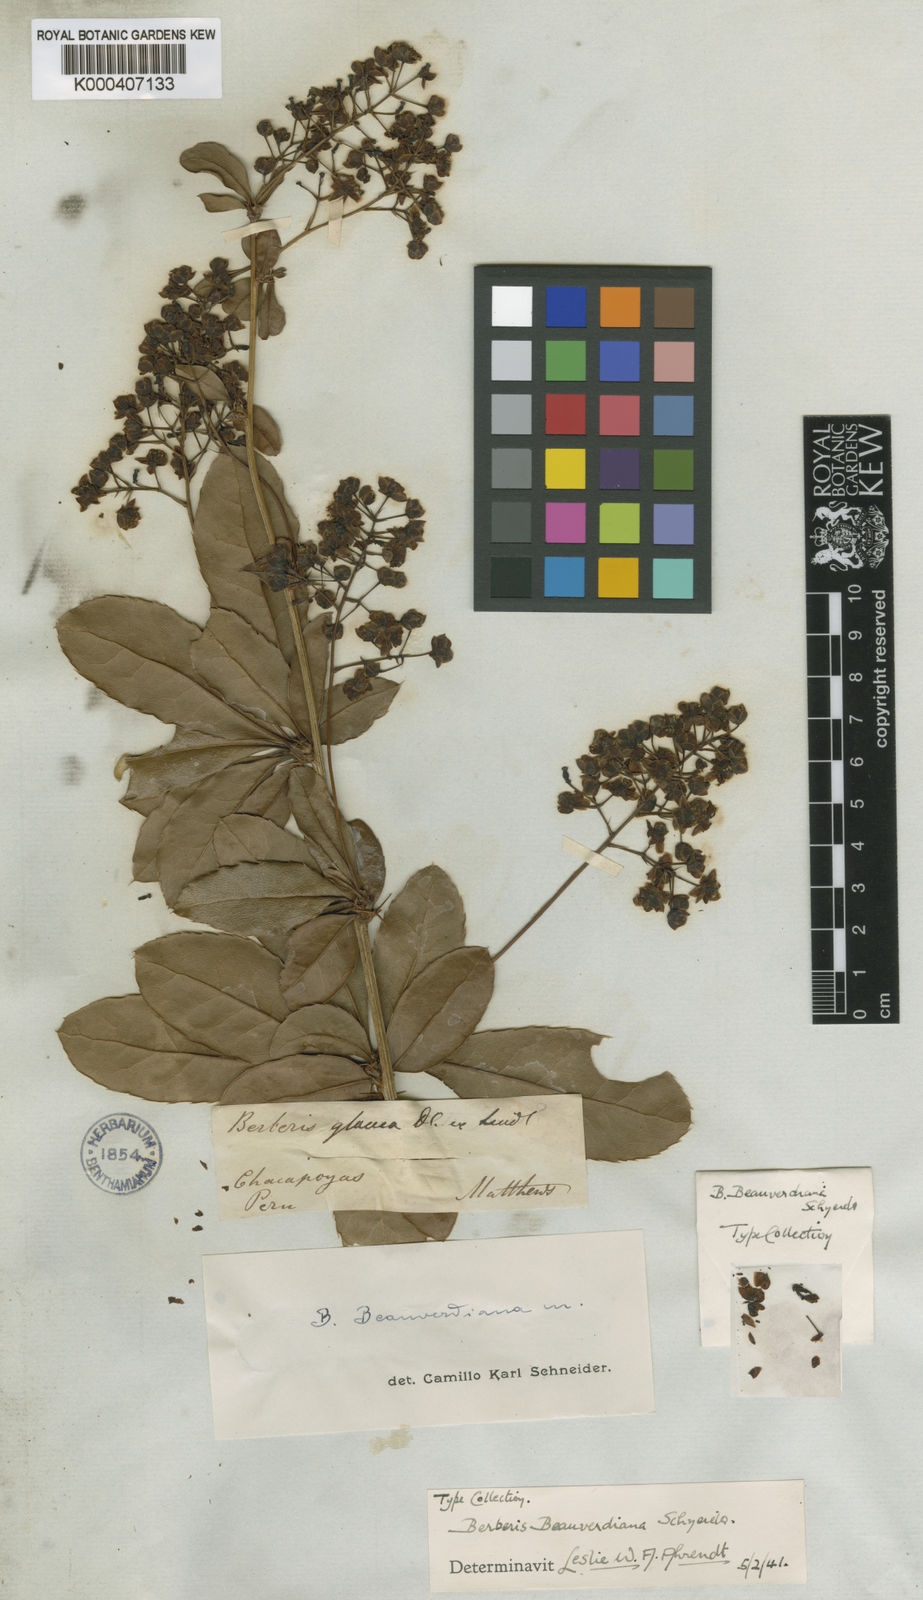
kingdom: Plantae
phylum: Tracheophyta
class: Magnoliopsida
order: Ranunculales
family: Berberidaceae
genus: Berberis
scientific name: Berberis beauverdiana
